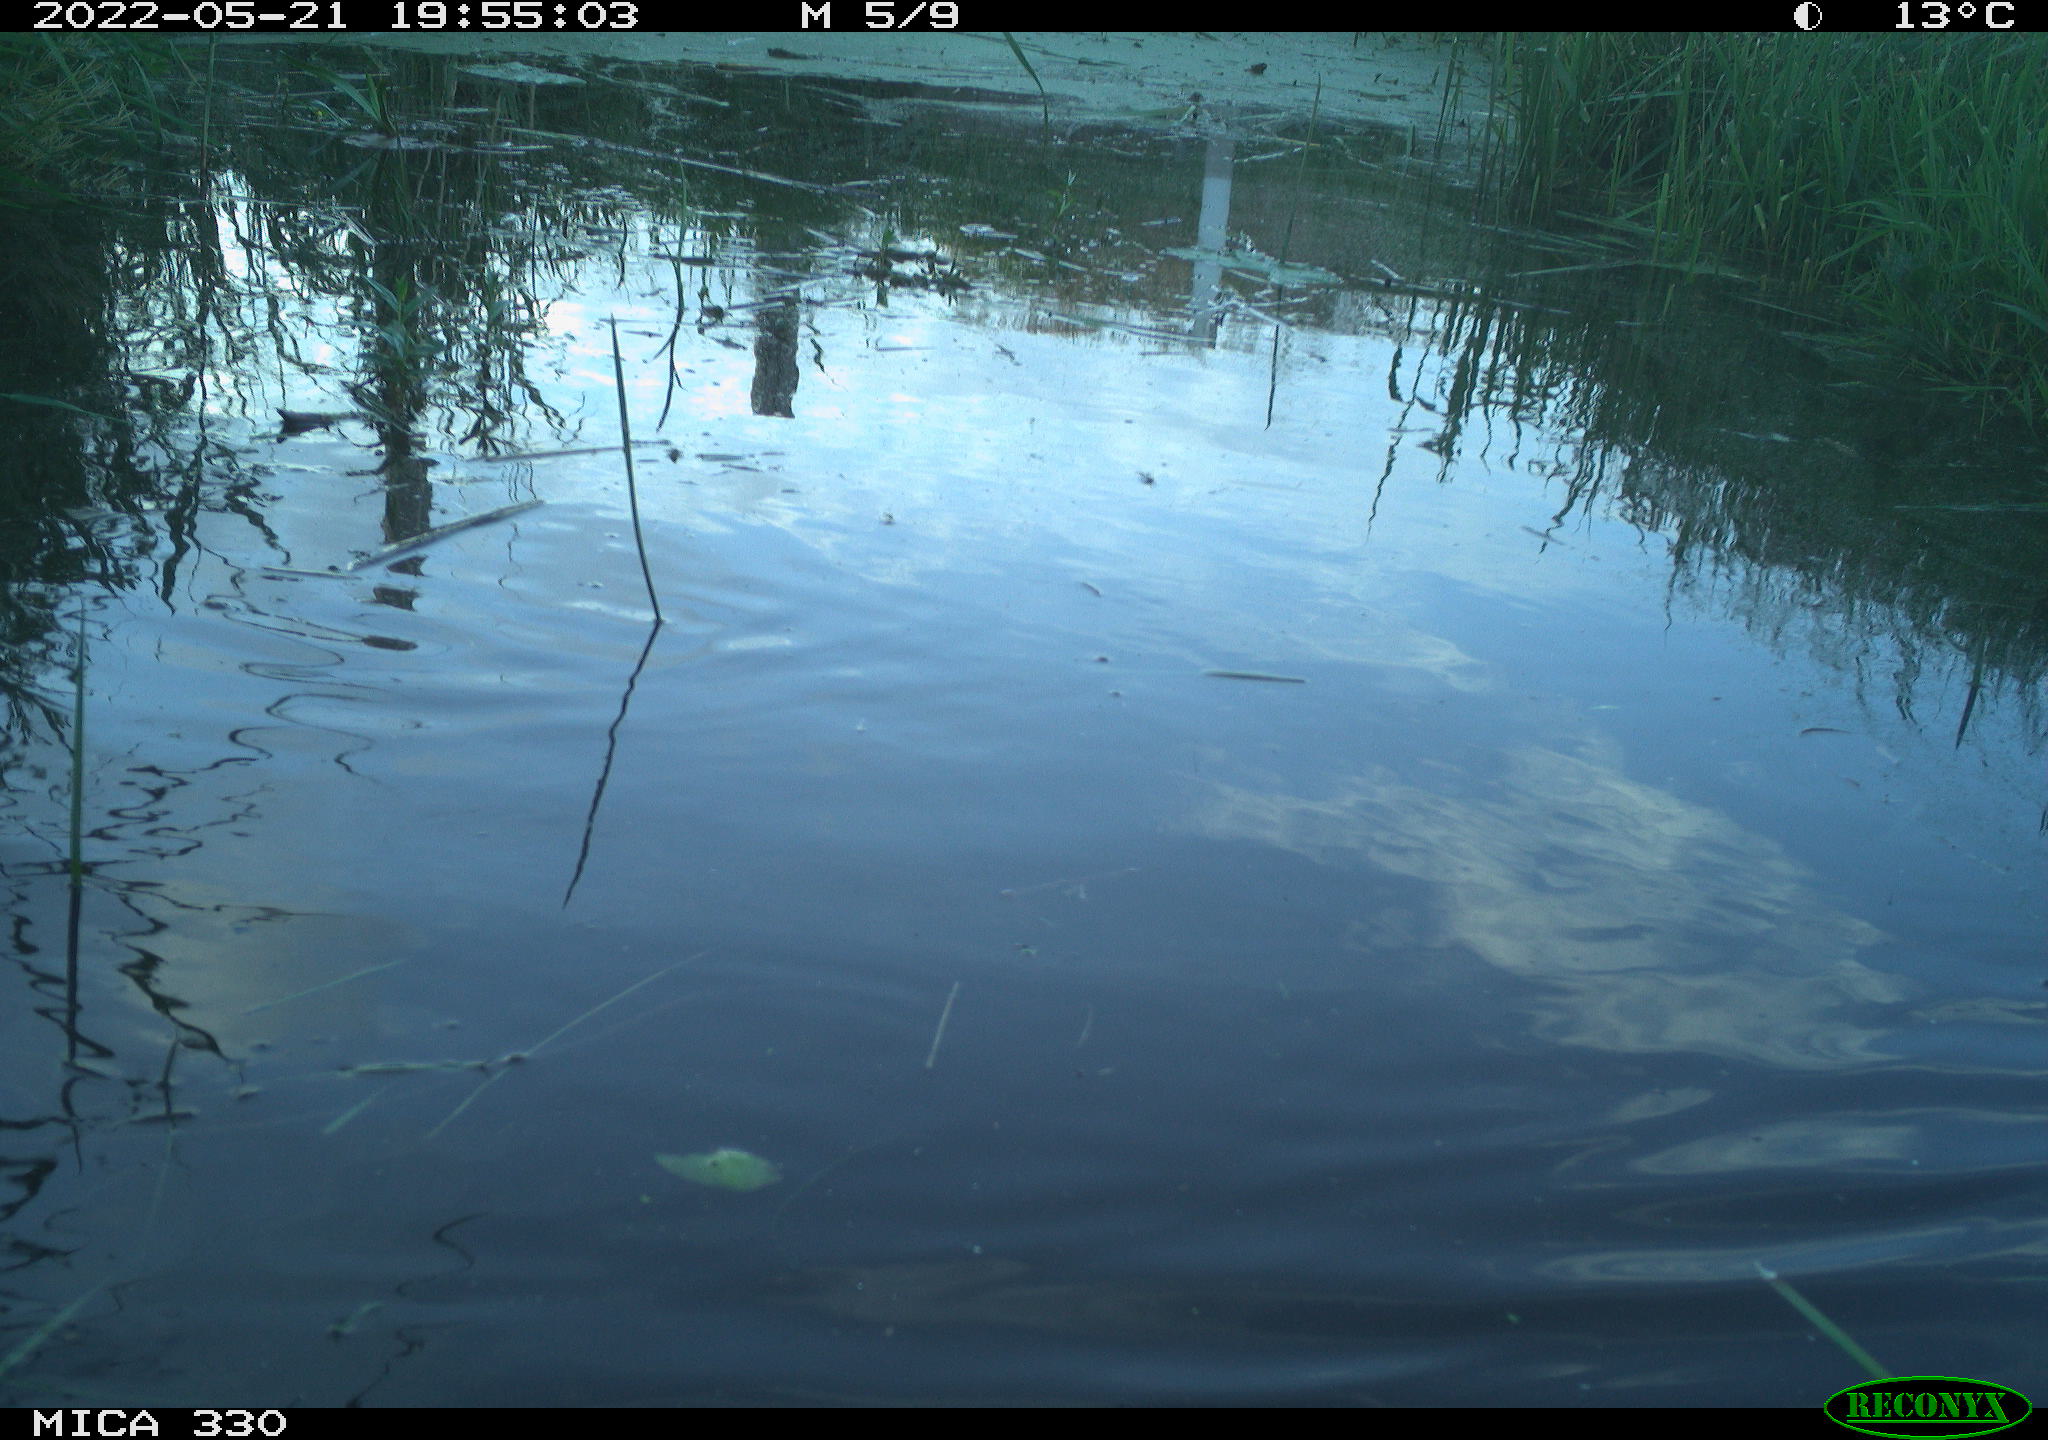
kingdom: Animalia
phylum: Chordata
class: Aves
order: Anseriformes
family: Anatidae
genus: Anas
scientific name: Anas platyrhynchos
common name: Mallard
